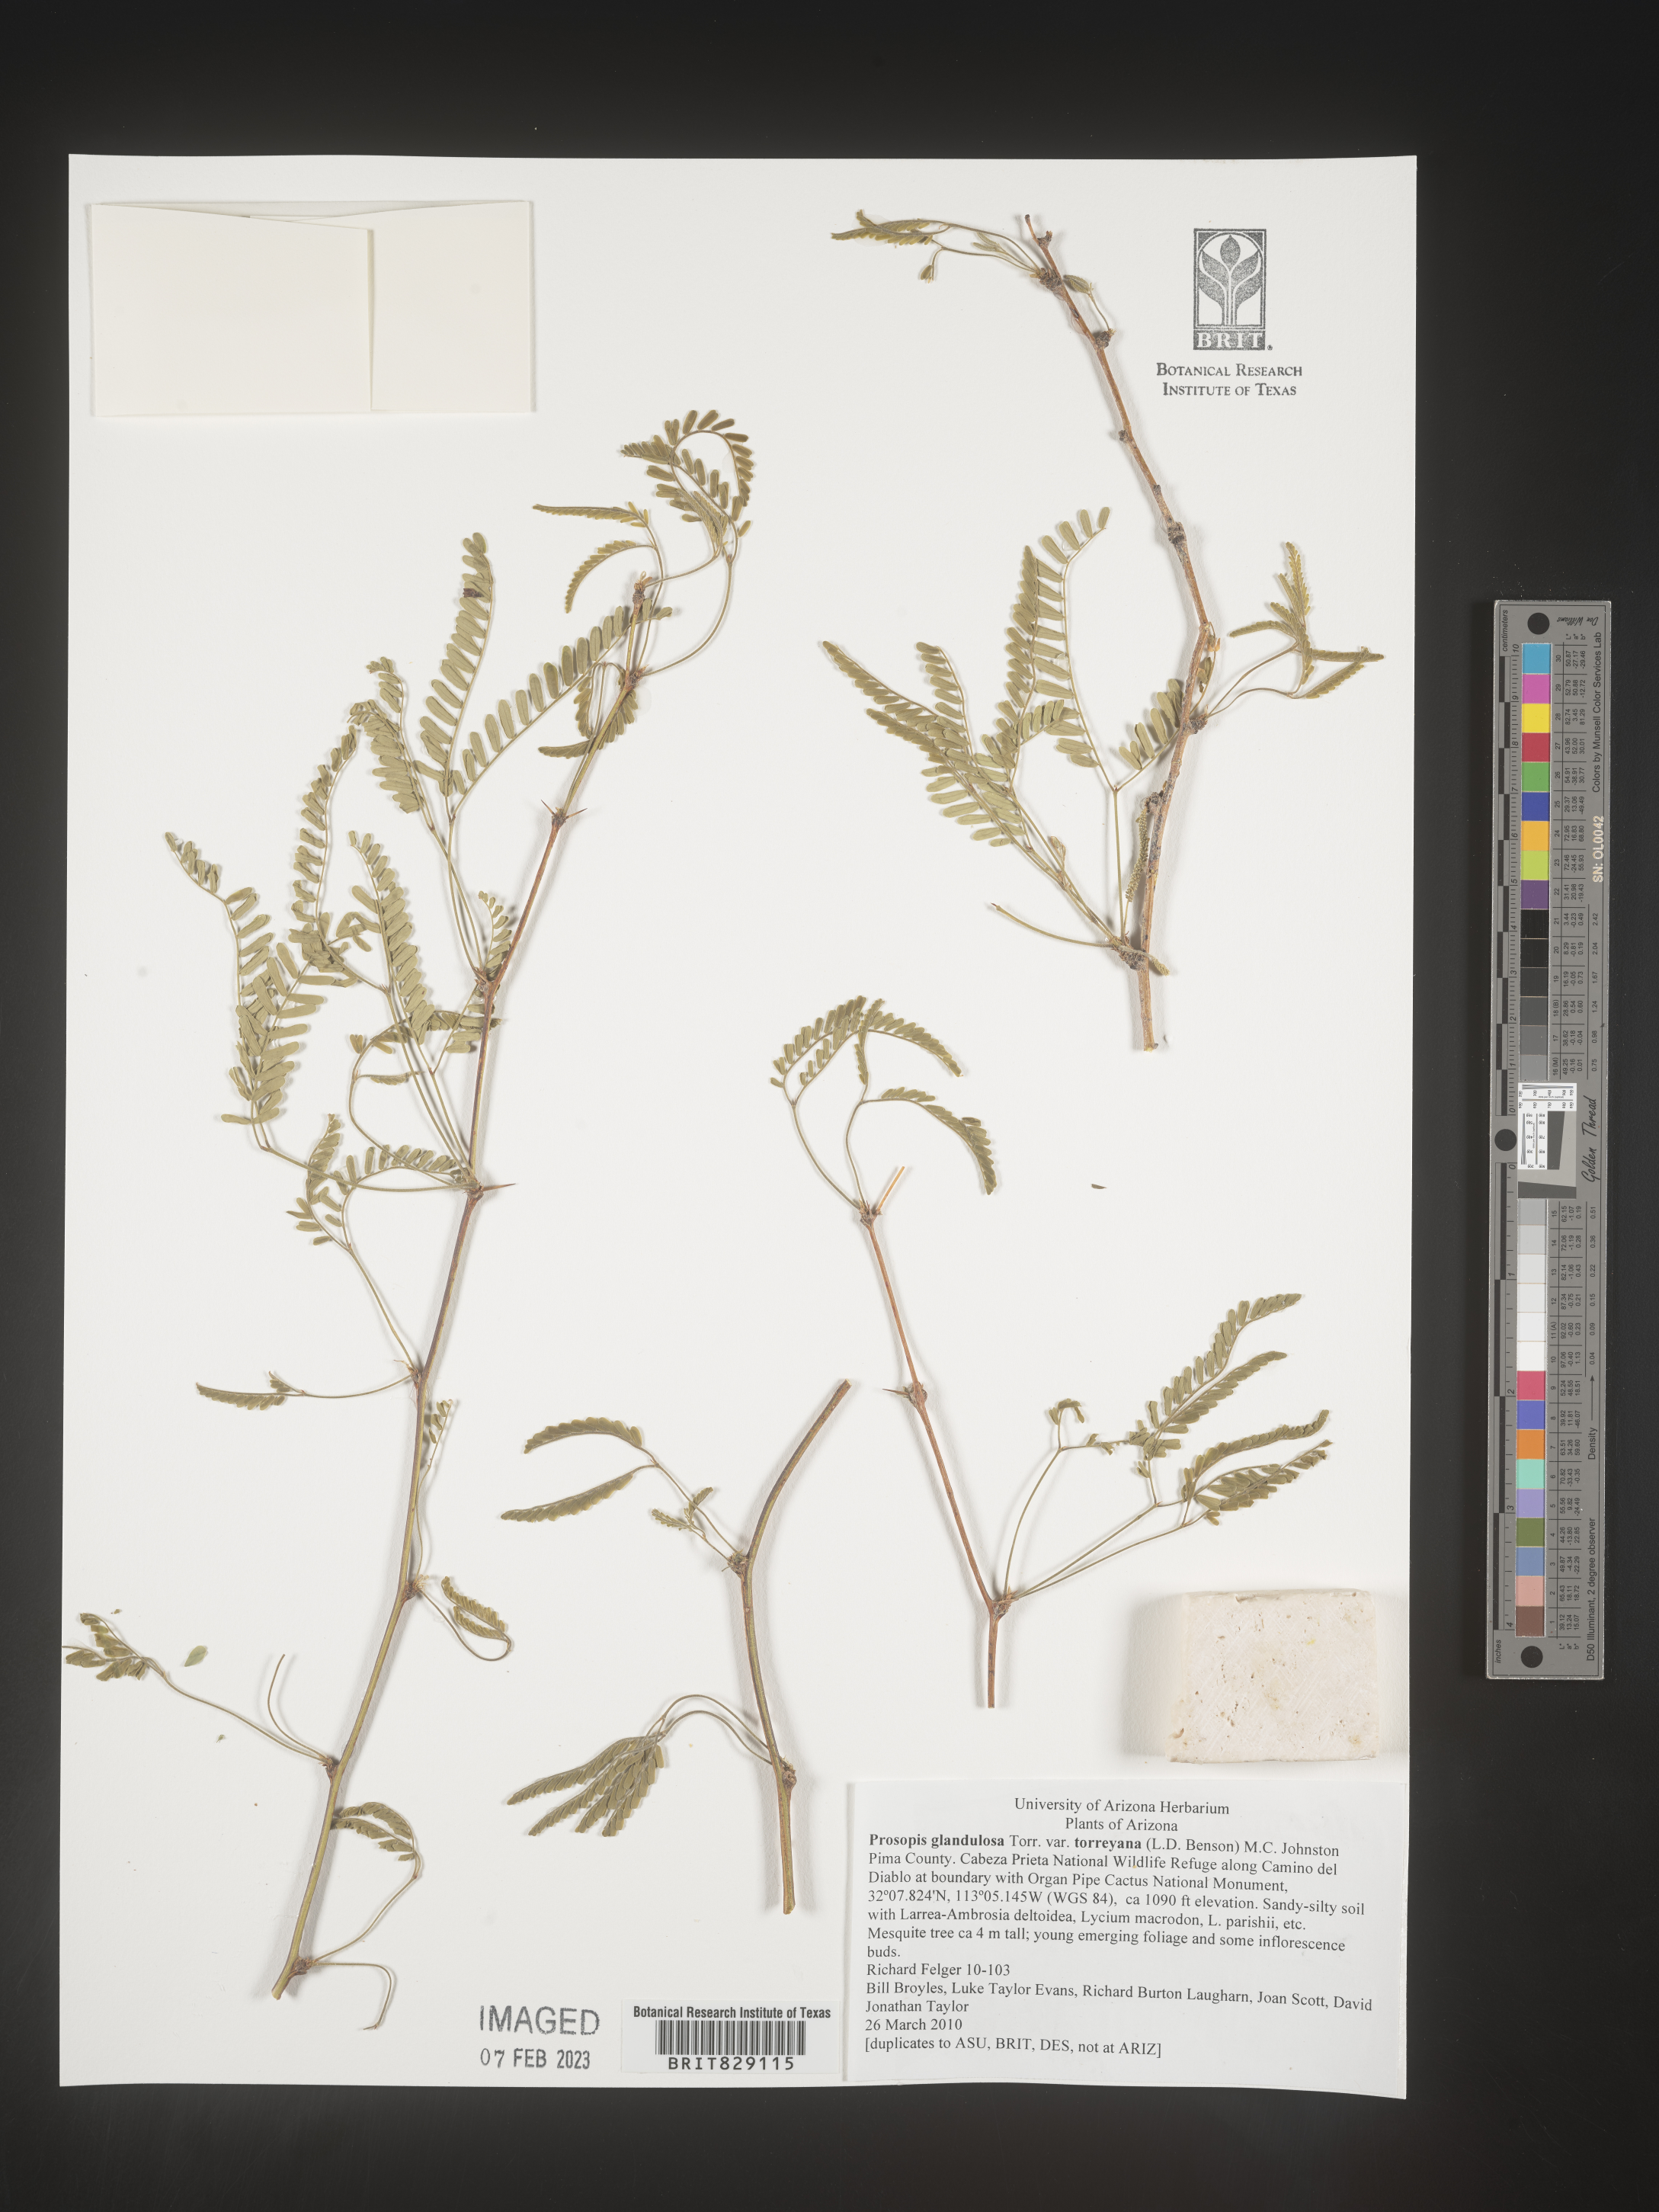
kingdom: Plantae
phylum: Tracheophyta
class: Magnoliopsida
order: Fabales
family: Fabaceae
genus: Prosopis
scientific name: Prosopis glandulosa
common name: Honey mesquite
